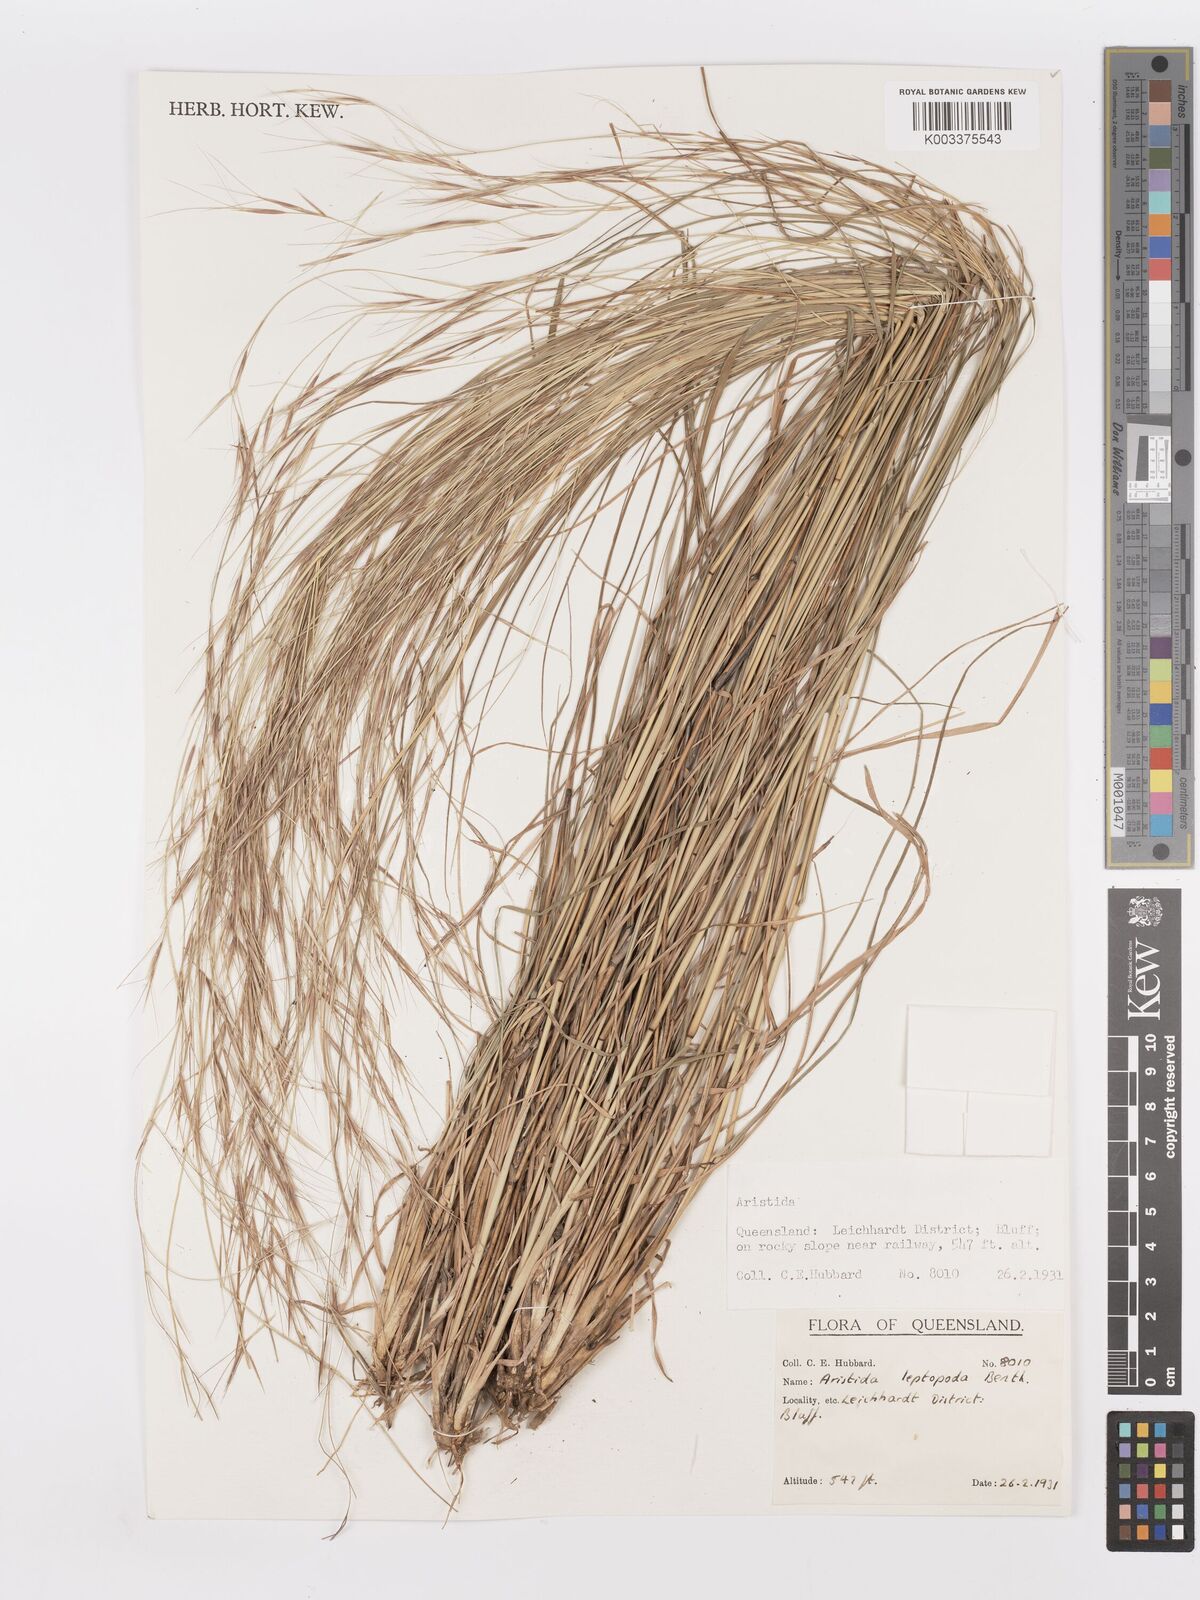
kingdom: Plantae
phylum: Tracheophyta
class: Liliopsida
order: Poales
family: Poaceae
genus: Aristida
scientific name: Aristida leptopoda
